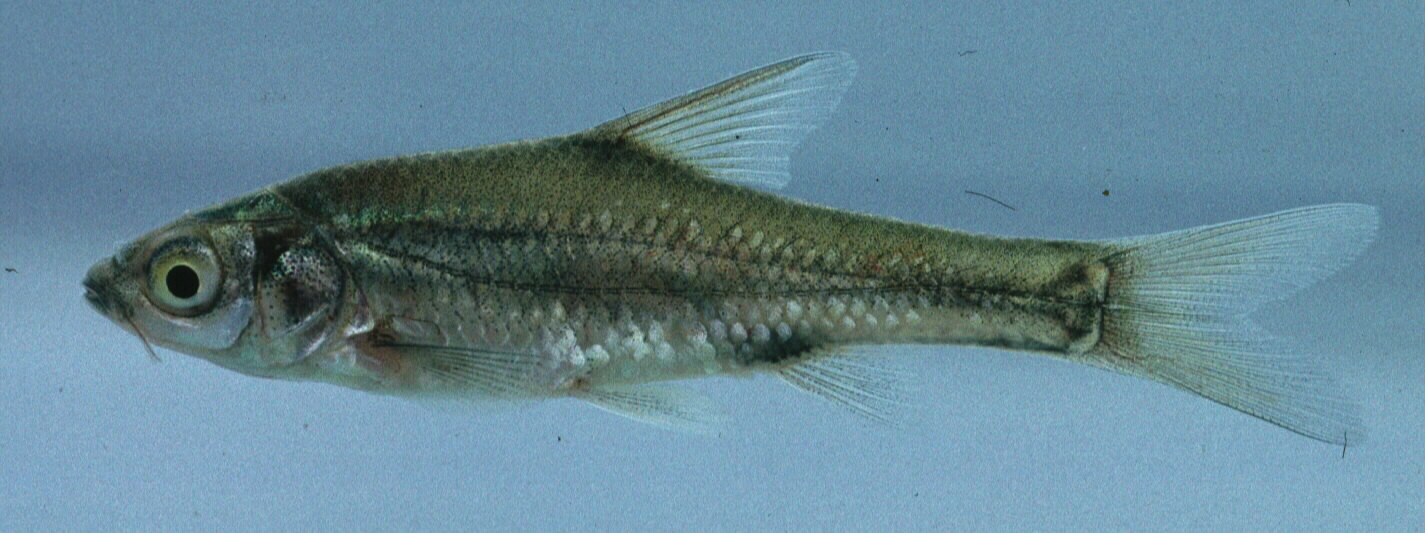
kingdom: Animalia
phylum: Chordata
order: Cypriniformes
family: Cyprinidae
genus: Enteromius
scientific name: Enteromius paludinosus
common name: Straightfin barb
